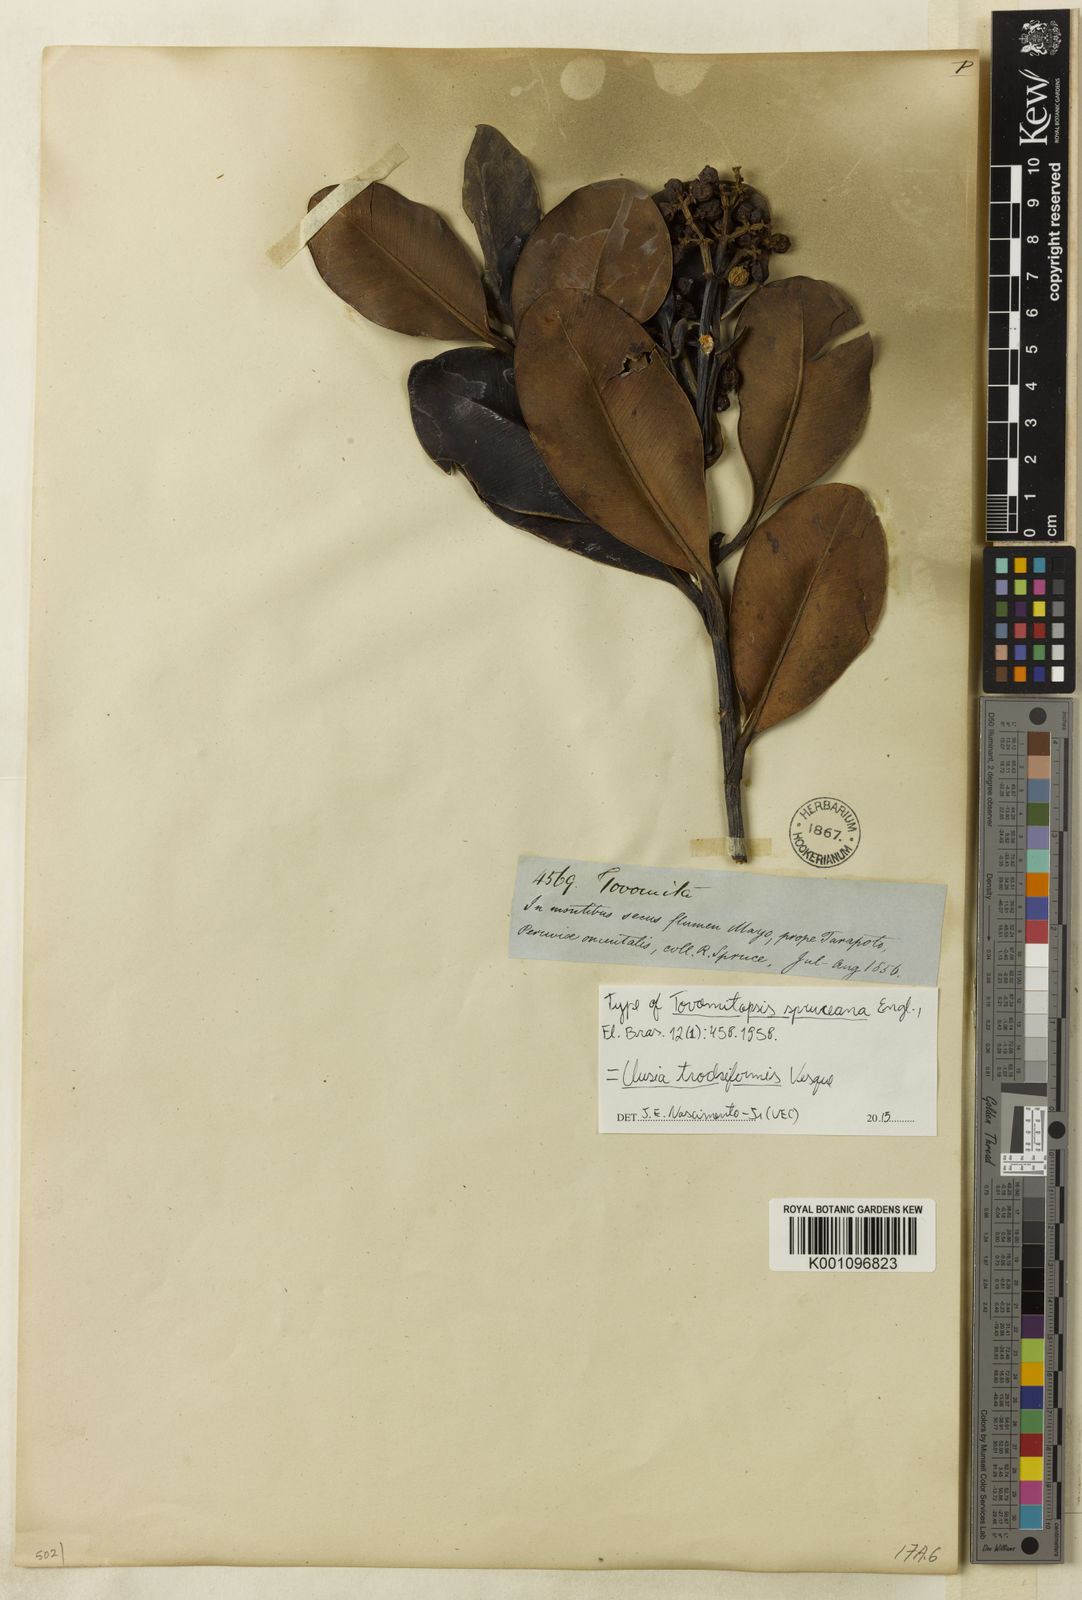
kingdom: Plantae
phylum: Tracheophyta
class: Magnoliopsida
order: Malpighiales
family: Clusiaceae
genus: Clusia
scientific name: Clusia trochiformis
